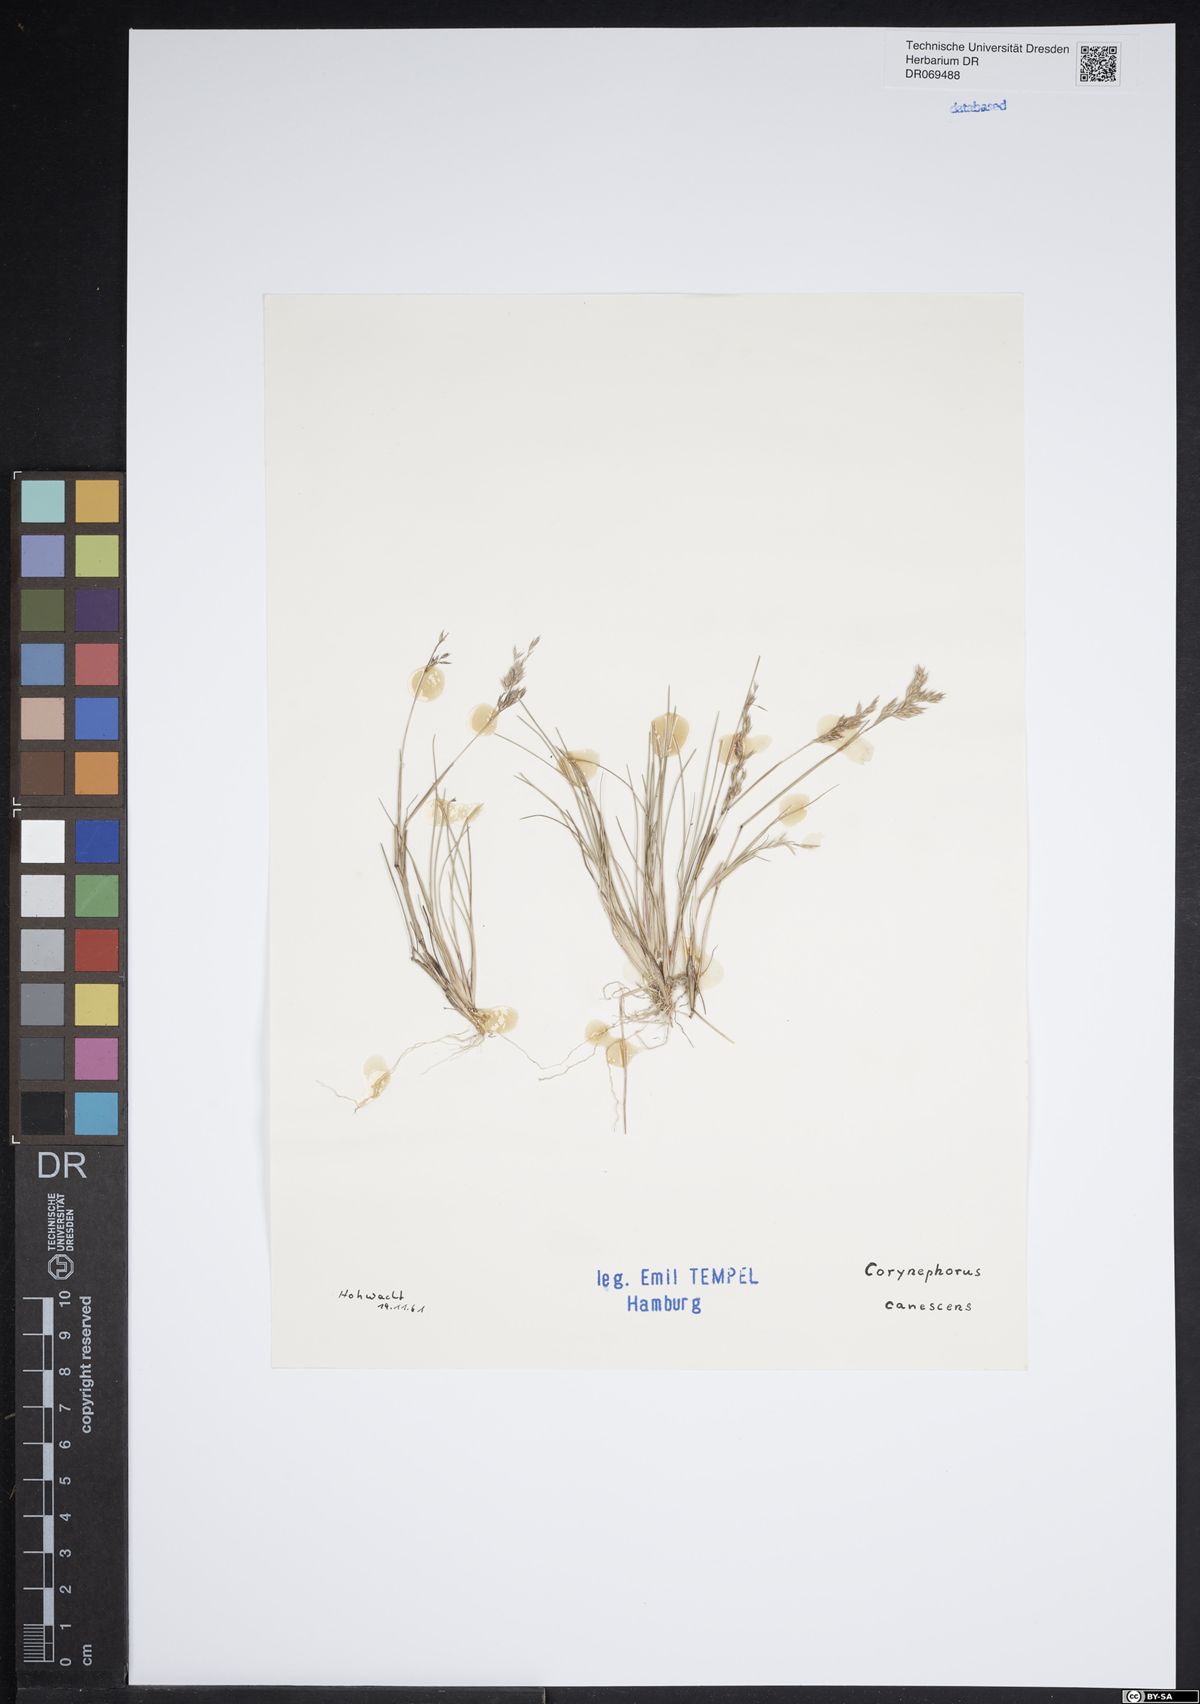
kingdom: Plantae
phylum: Tracheophyta
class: Liliopsida
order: Poales
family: Poaceae
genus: Corynephorus
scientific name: Corynephorus canescens
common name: Grey hair-grass
